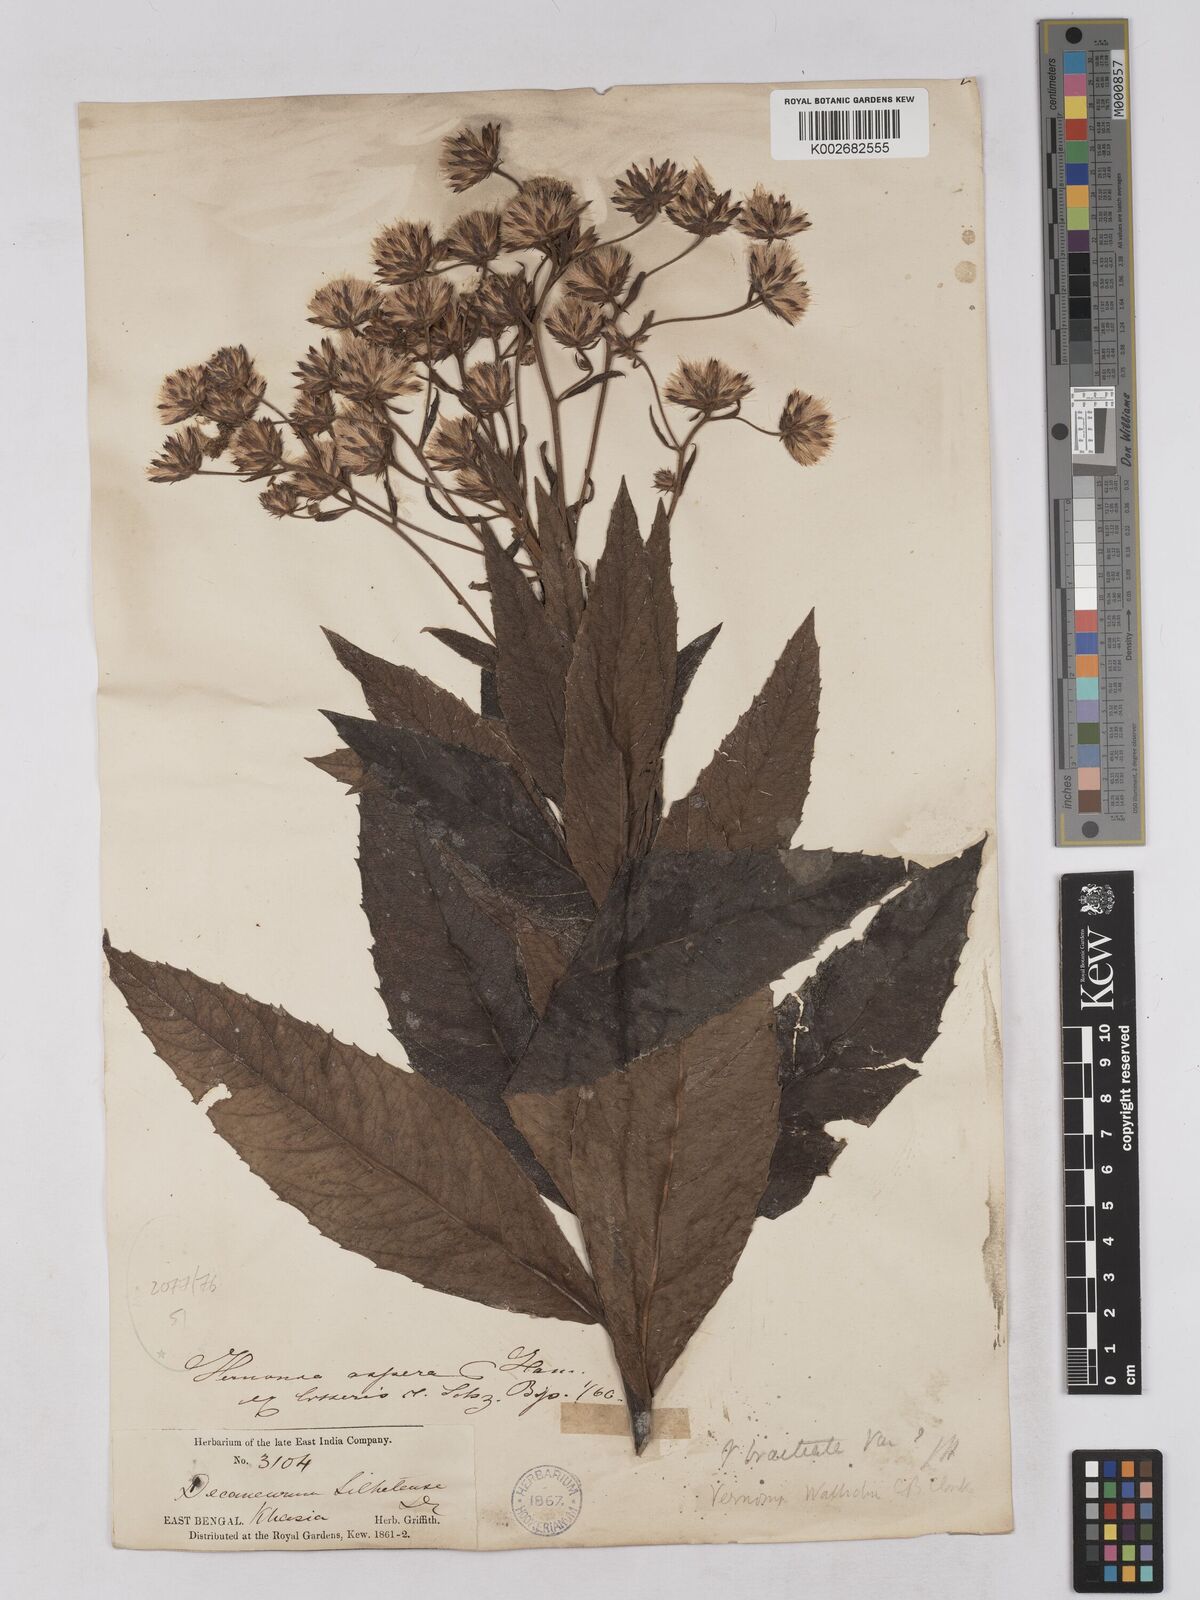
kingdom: Plantae
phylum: Tracheophyta
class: Magnoliopsida
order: Asterales
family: Asteraceae
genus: Acilepis
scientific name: Acilepis silhetensis
